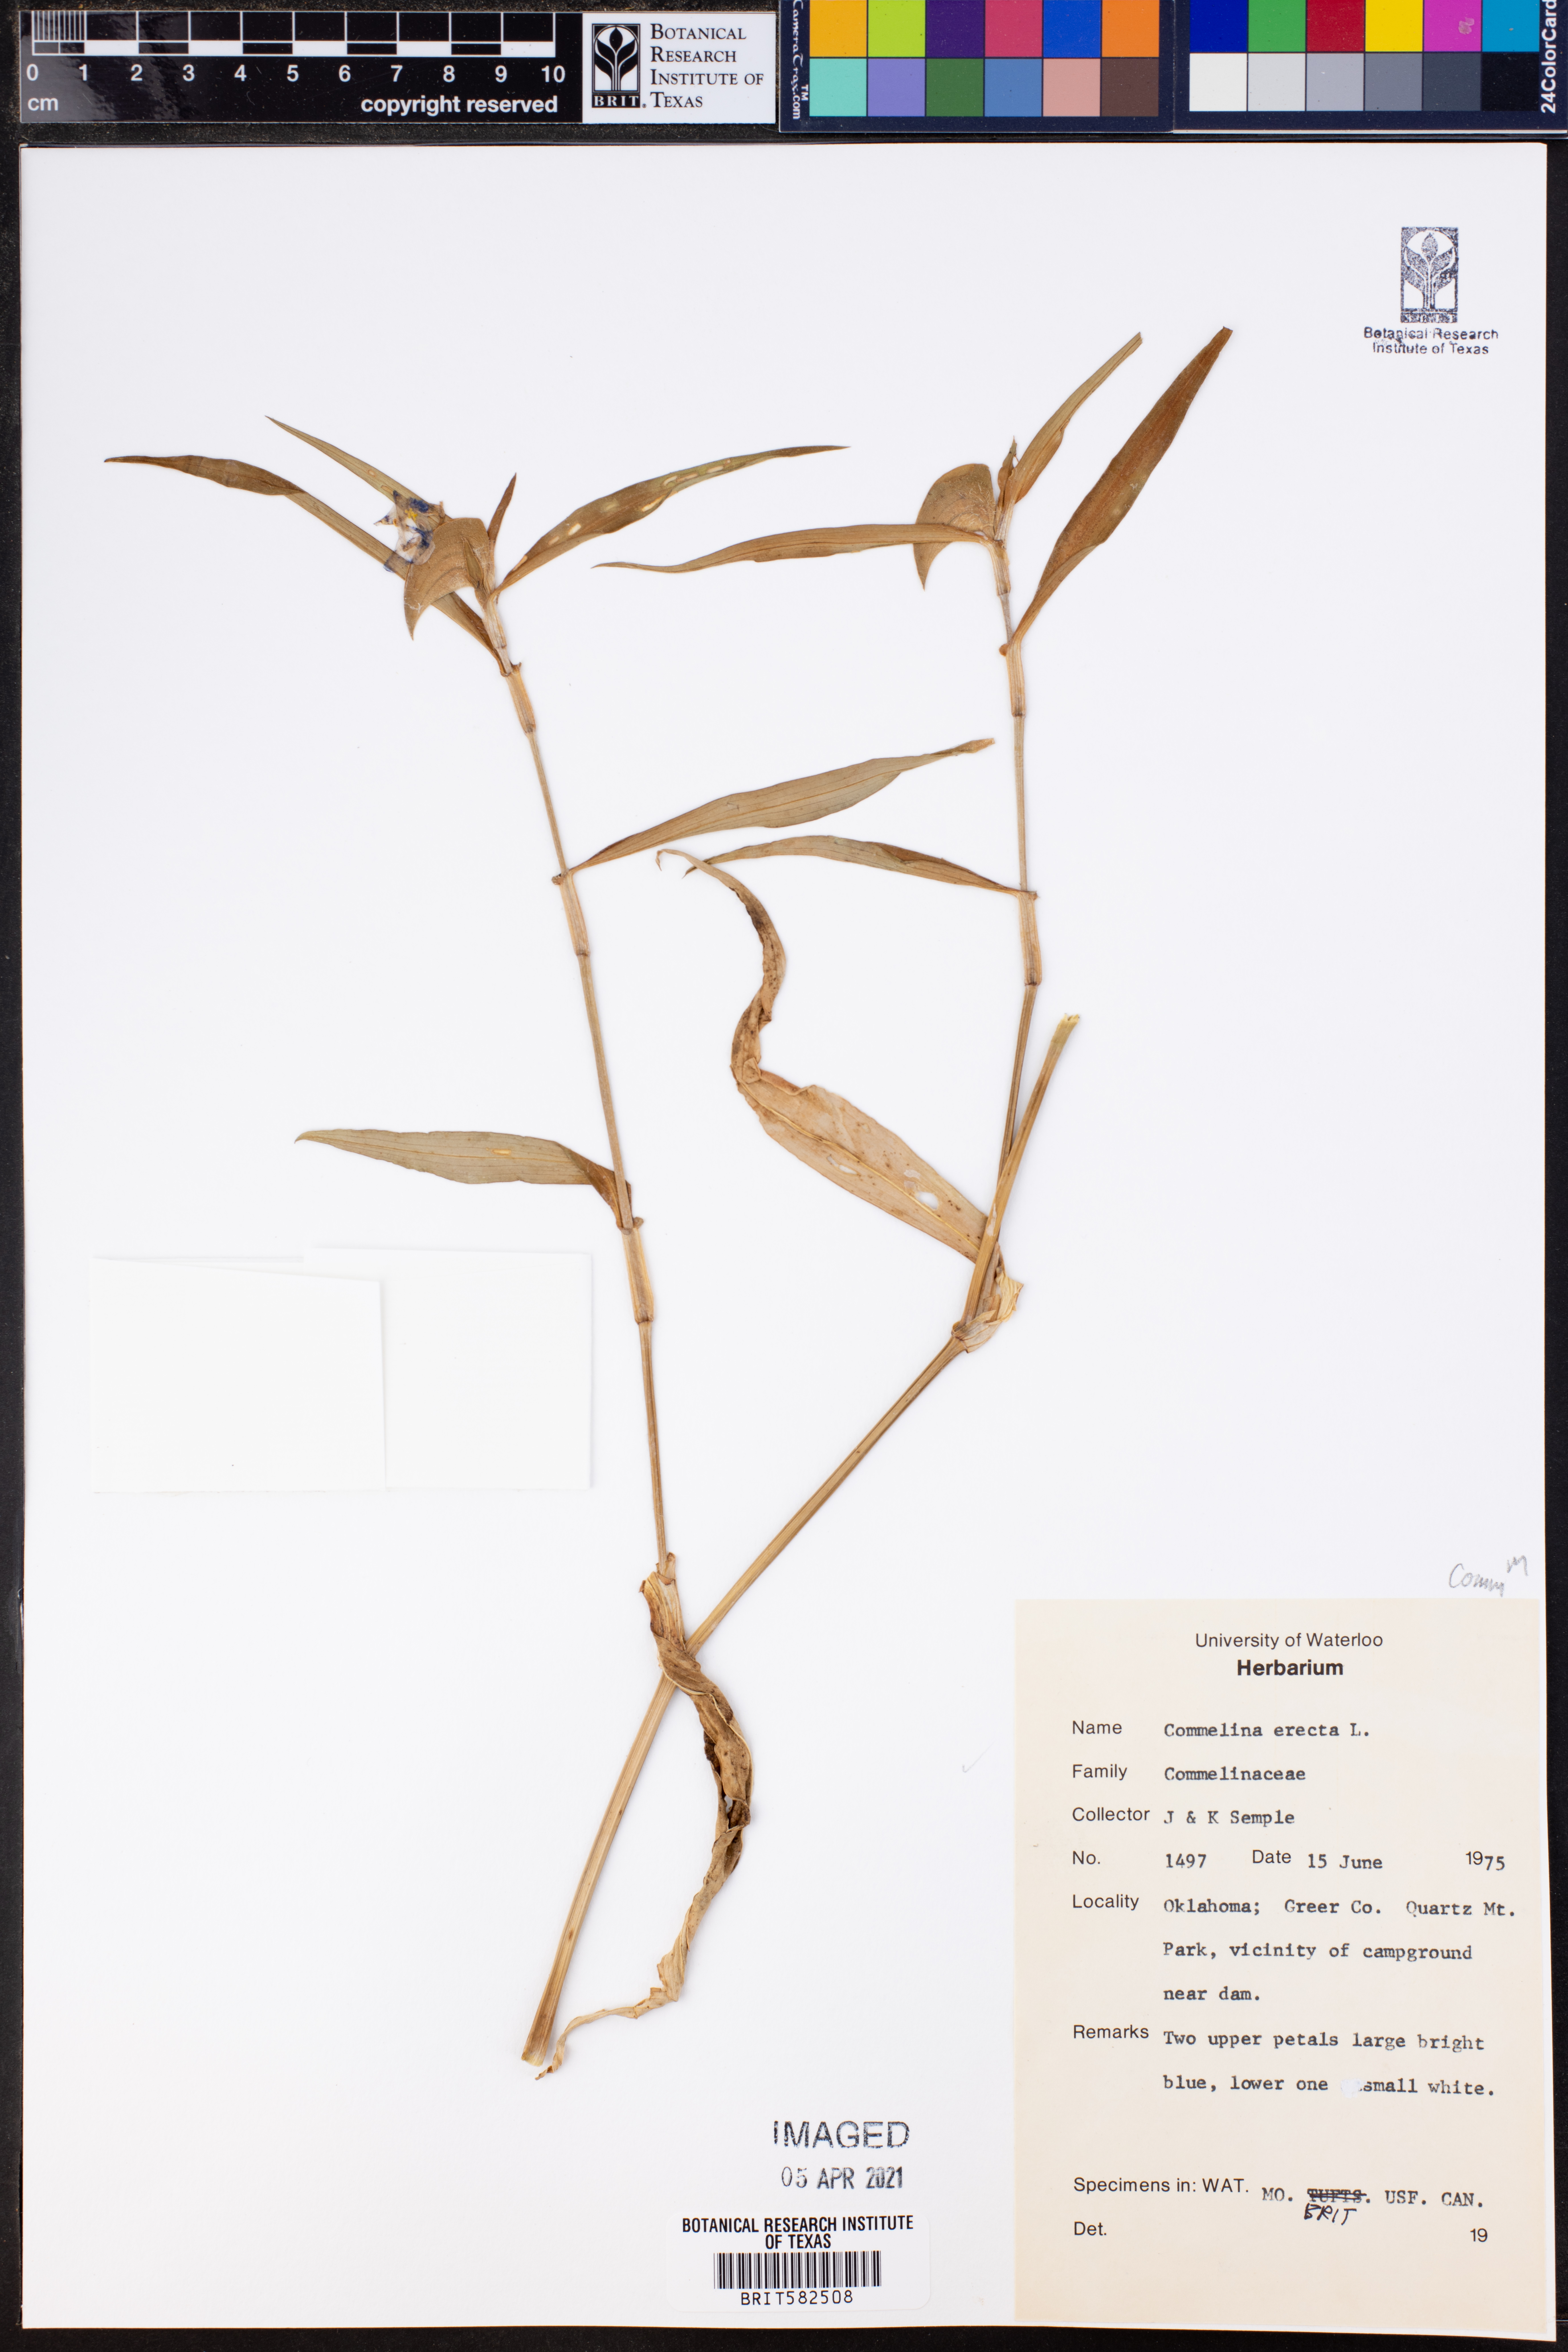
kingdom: Plantae
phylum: Tracheophyta
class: Liliopsida
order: Commelinales
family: Commelinaceae
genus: Commelina
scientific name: Commelina erecta
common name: Blousel blommetjie
